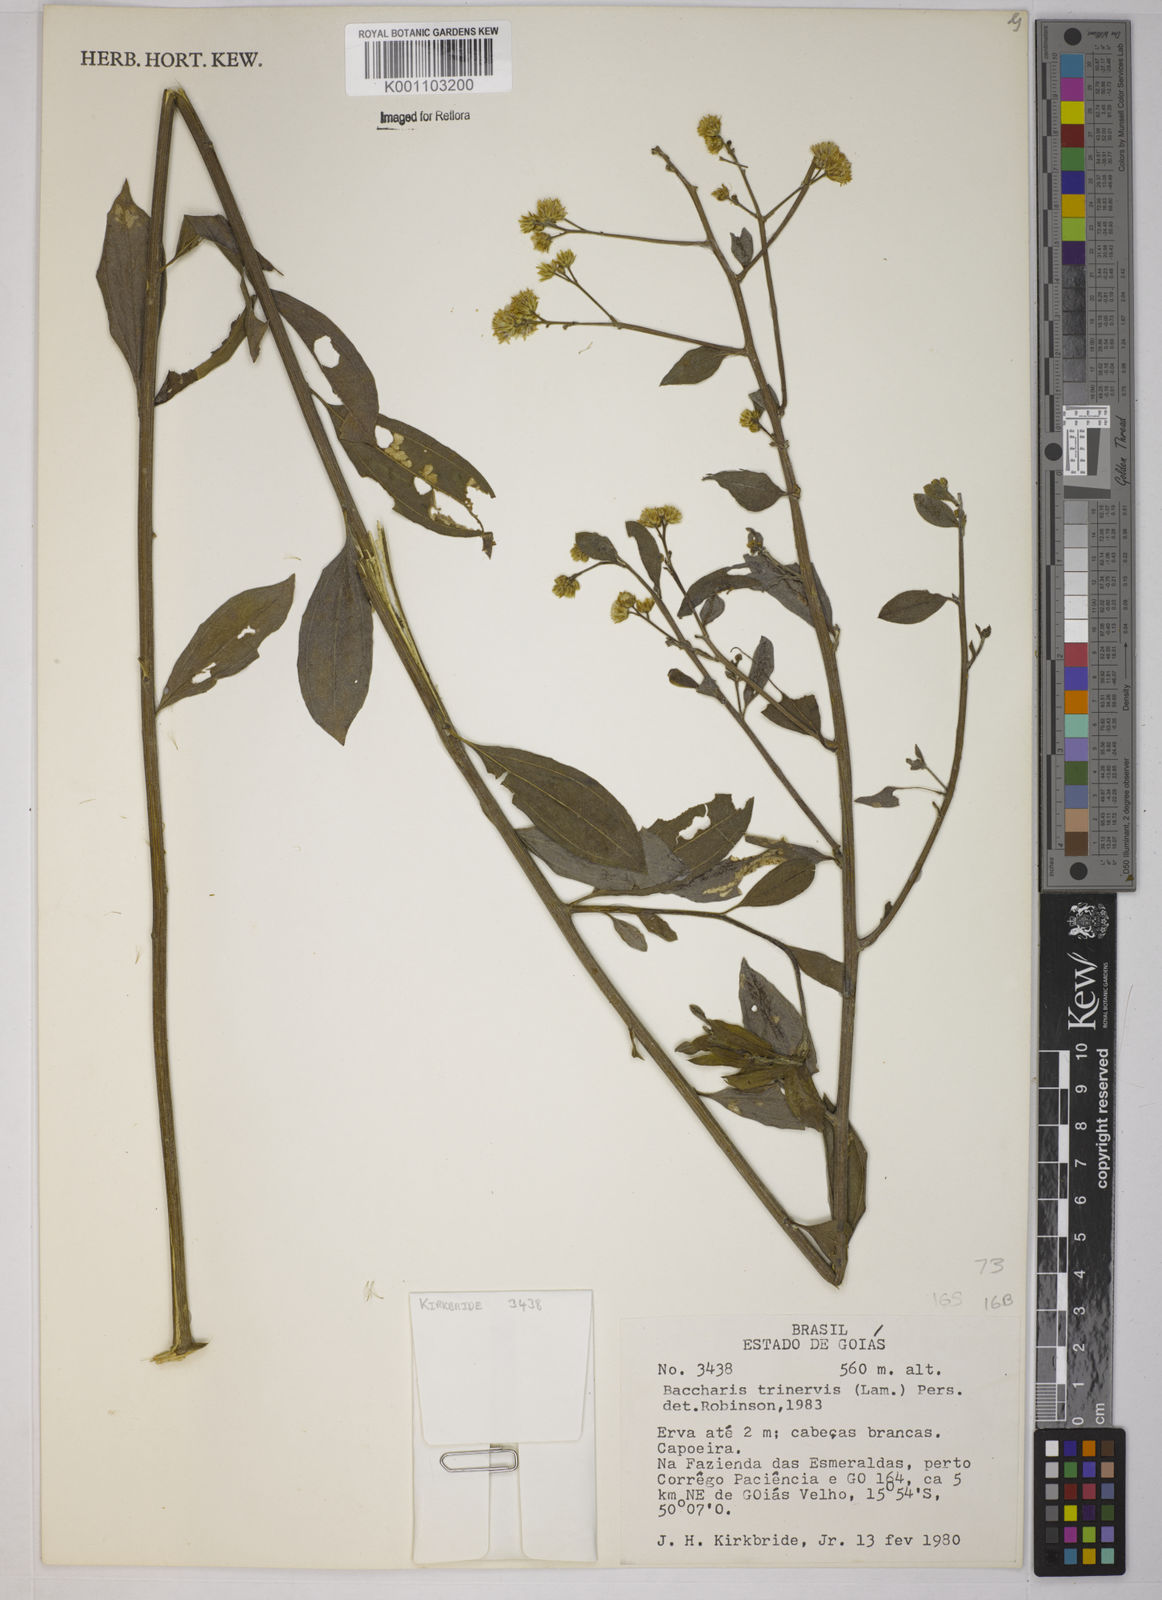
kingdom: Plantae
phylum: Tracheophyta
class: Magnoliopsida
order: Asterales
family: Asteraceae
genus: Baccharis
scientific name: Baccharis trinervis
